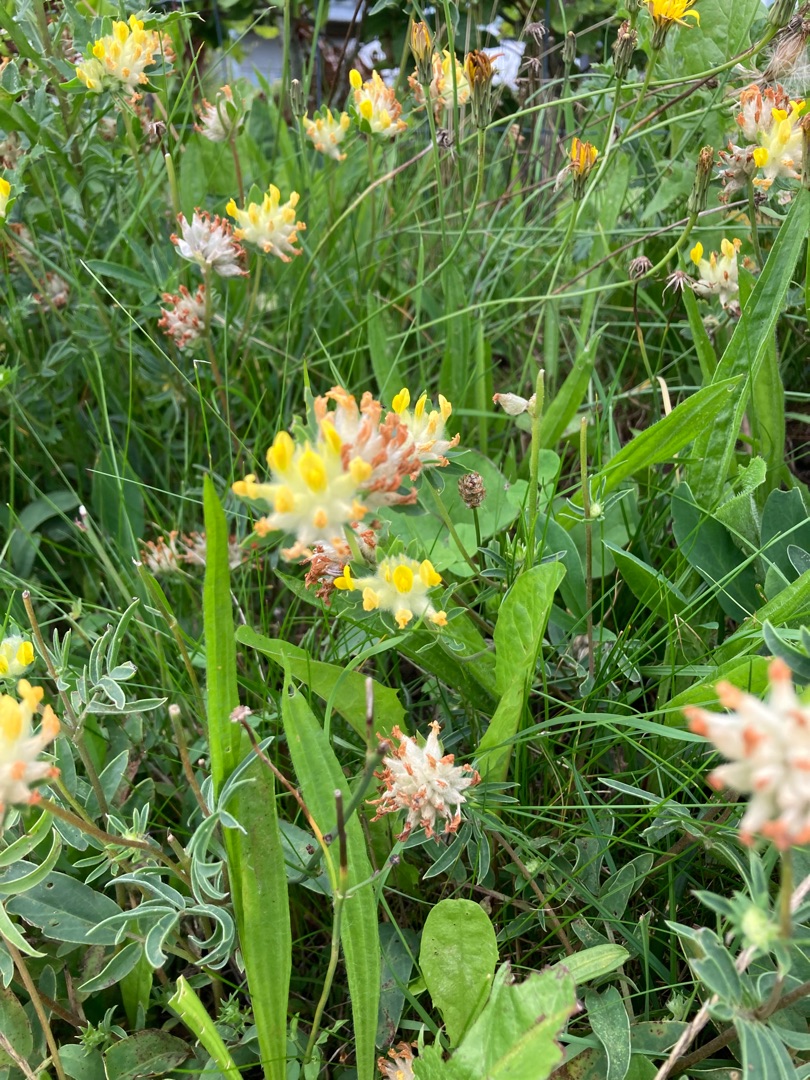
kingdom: Plantae
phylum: Tracheophyta
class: Magnoliopsida
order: Fabales
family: Fabaceae
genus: Anthyllis
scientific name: Anthyllis vulneraria
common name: Rundbælg
